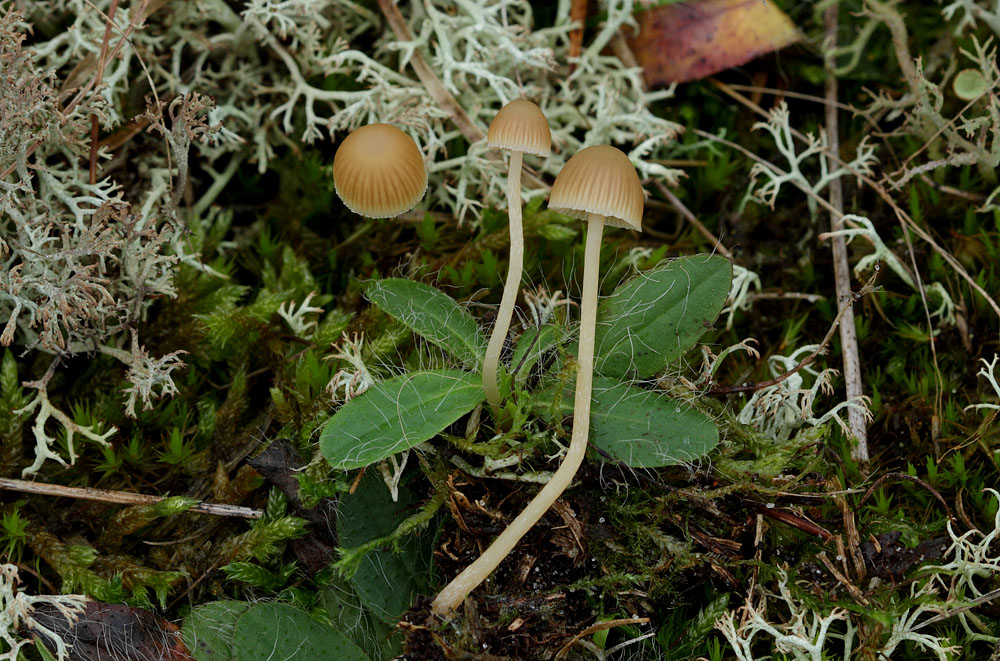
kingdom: Fungi
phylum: Basidiomycota
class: Agaricomycetes
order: Agaricales
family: Hymenogastraceae
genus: Galerina
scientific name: Galerina mniophila
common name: olivengul hjelmhat
